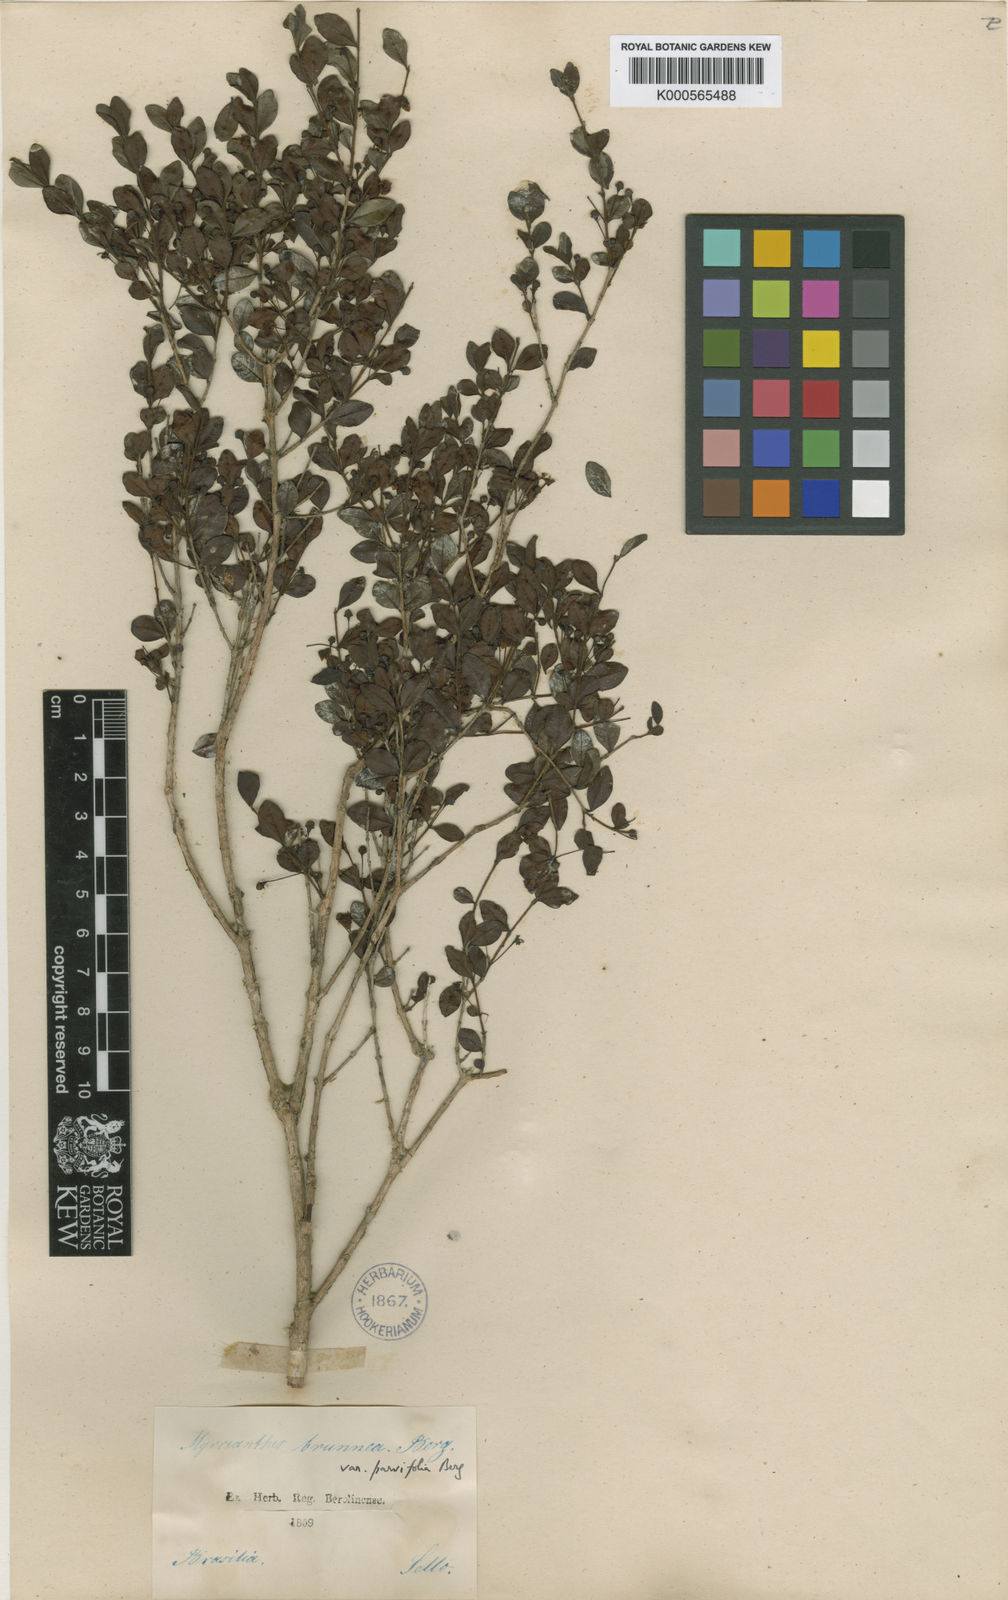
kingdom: Plantae
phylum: Tracheophyta
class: Magnoliopsida
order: Myrtales
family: Myrtaceae
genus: Psidium
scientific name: Psidium ovale
